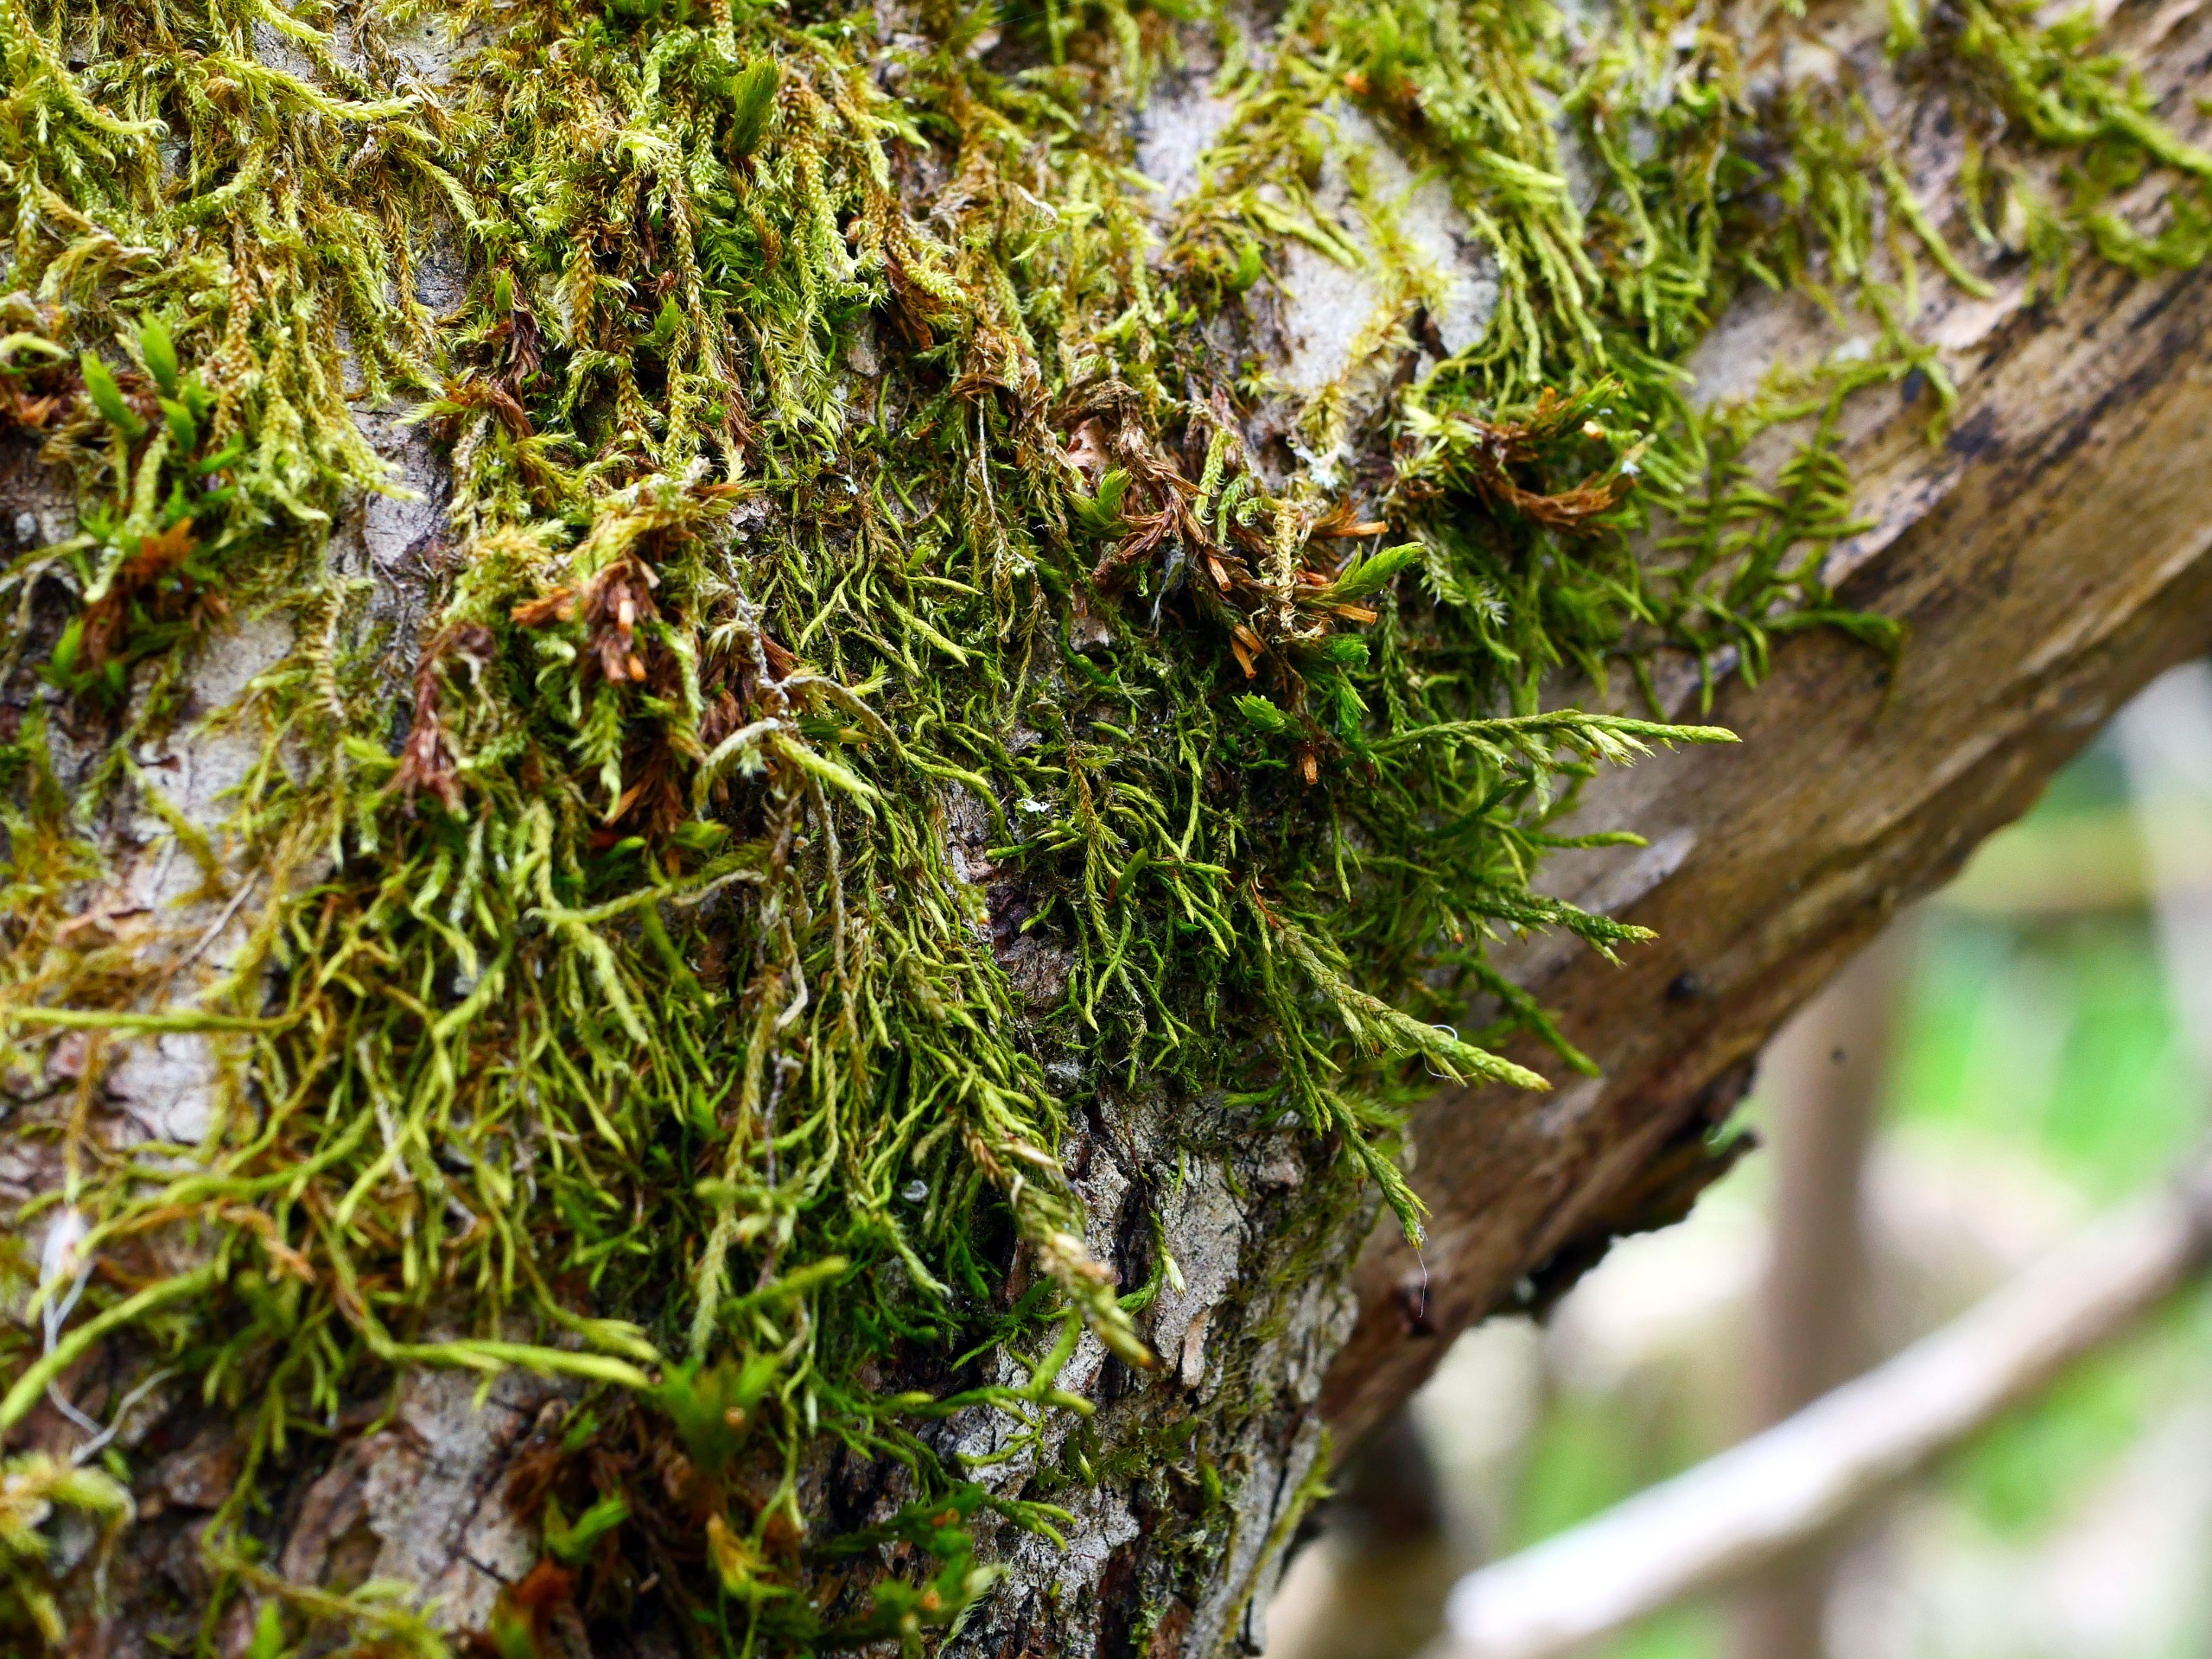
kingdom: Plantae
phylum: Bryophyta
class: Bryopsida
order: Hypnales
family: Cryphaeaceae
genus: Cryphaea
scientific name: Cryphaea heteromalla
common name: Bark-dækmos
